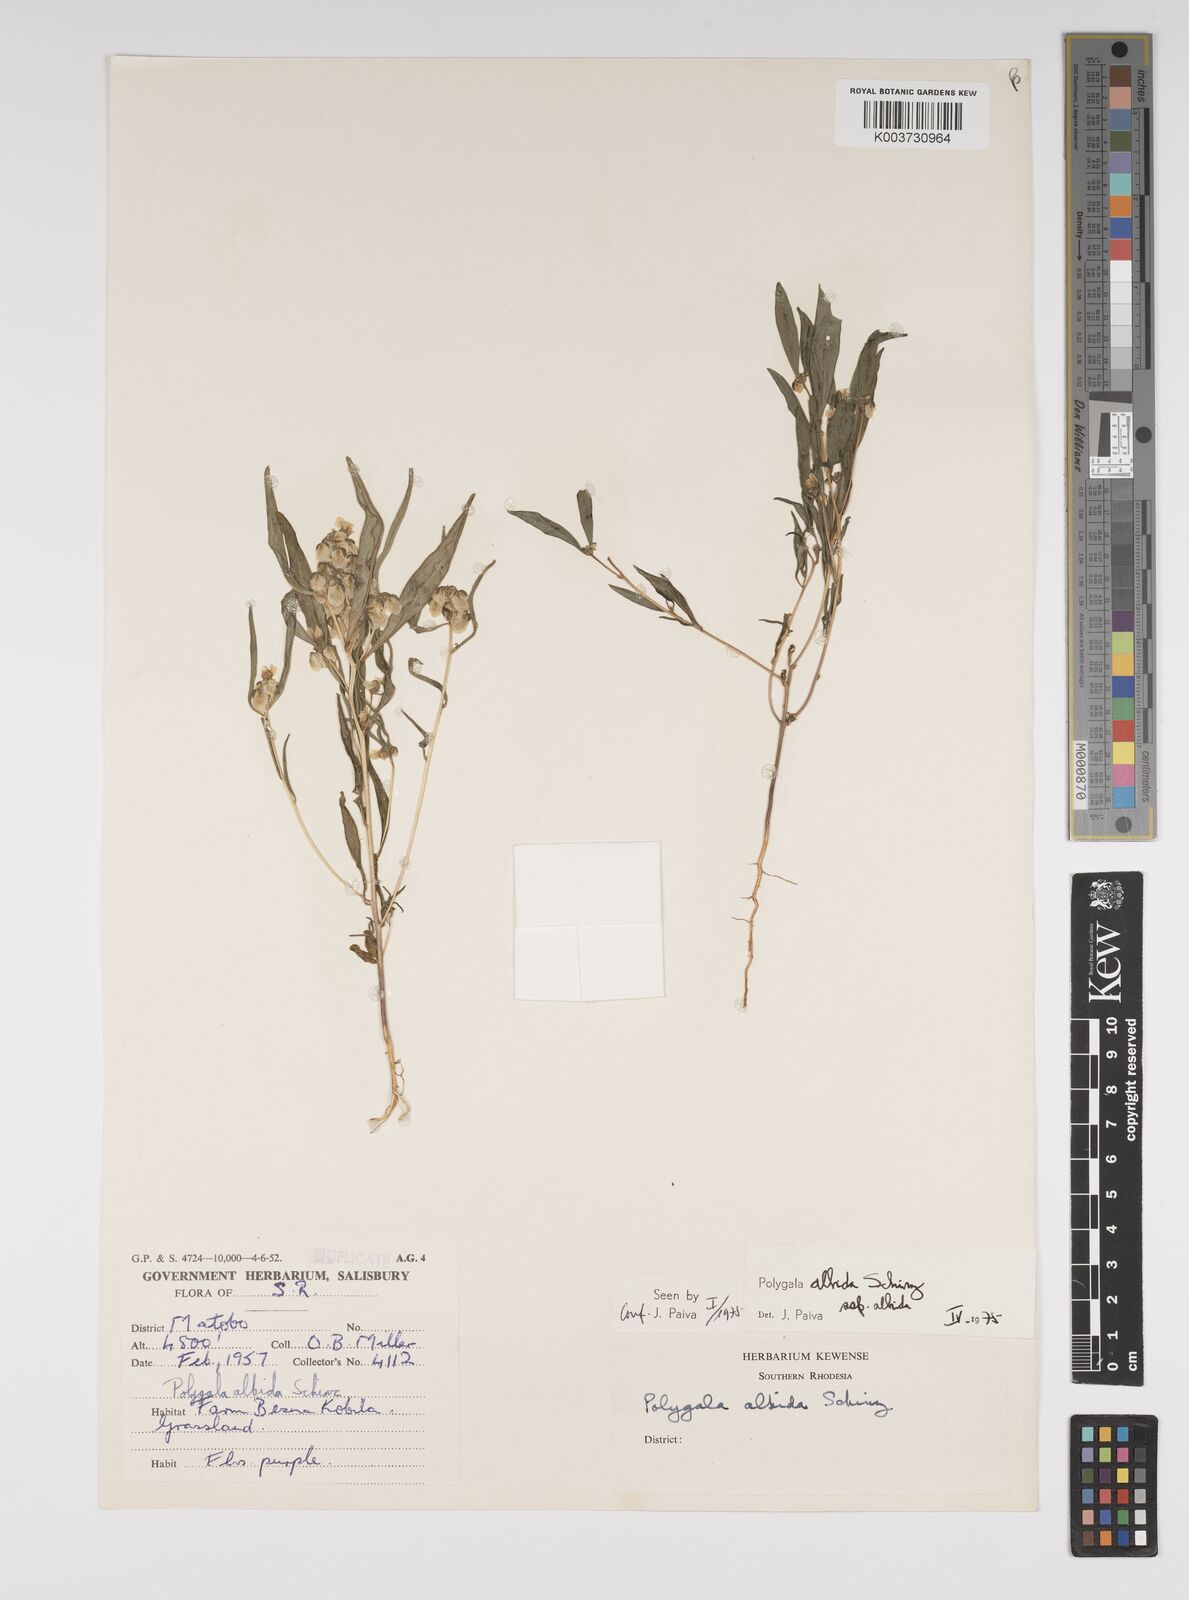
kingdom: Plantae
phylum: Tracheophyta
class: Magnoliopsida
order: Fabales
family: Polygalaceae
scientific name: Polygalaceae
